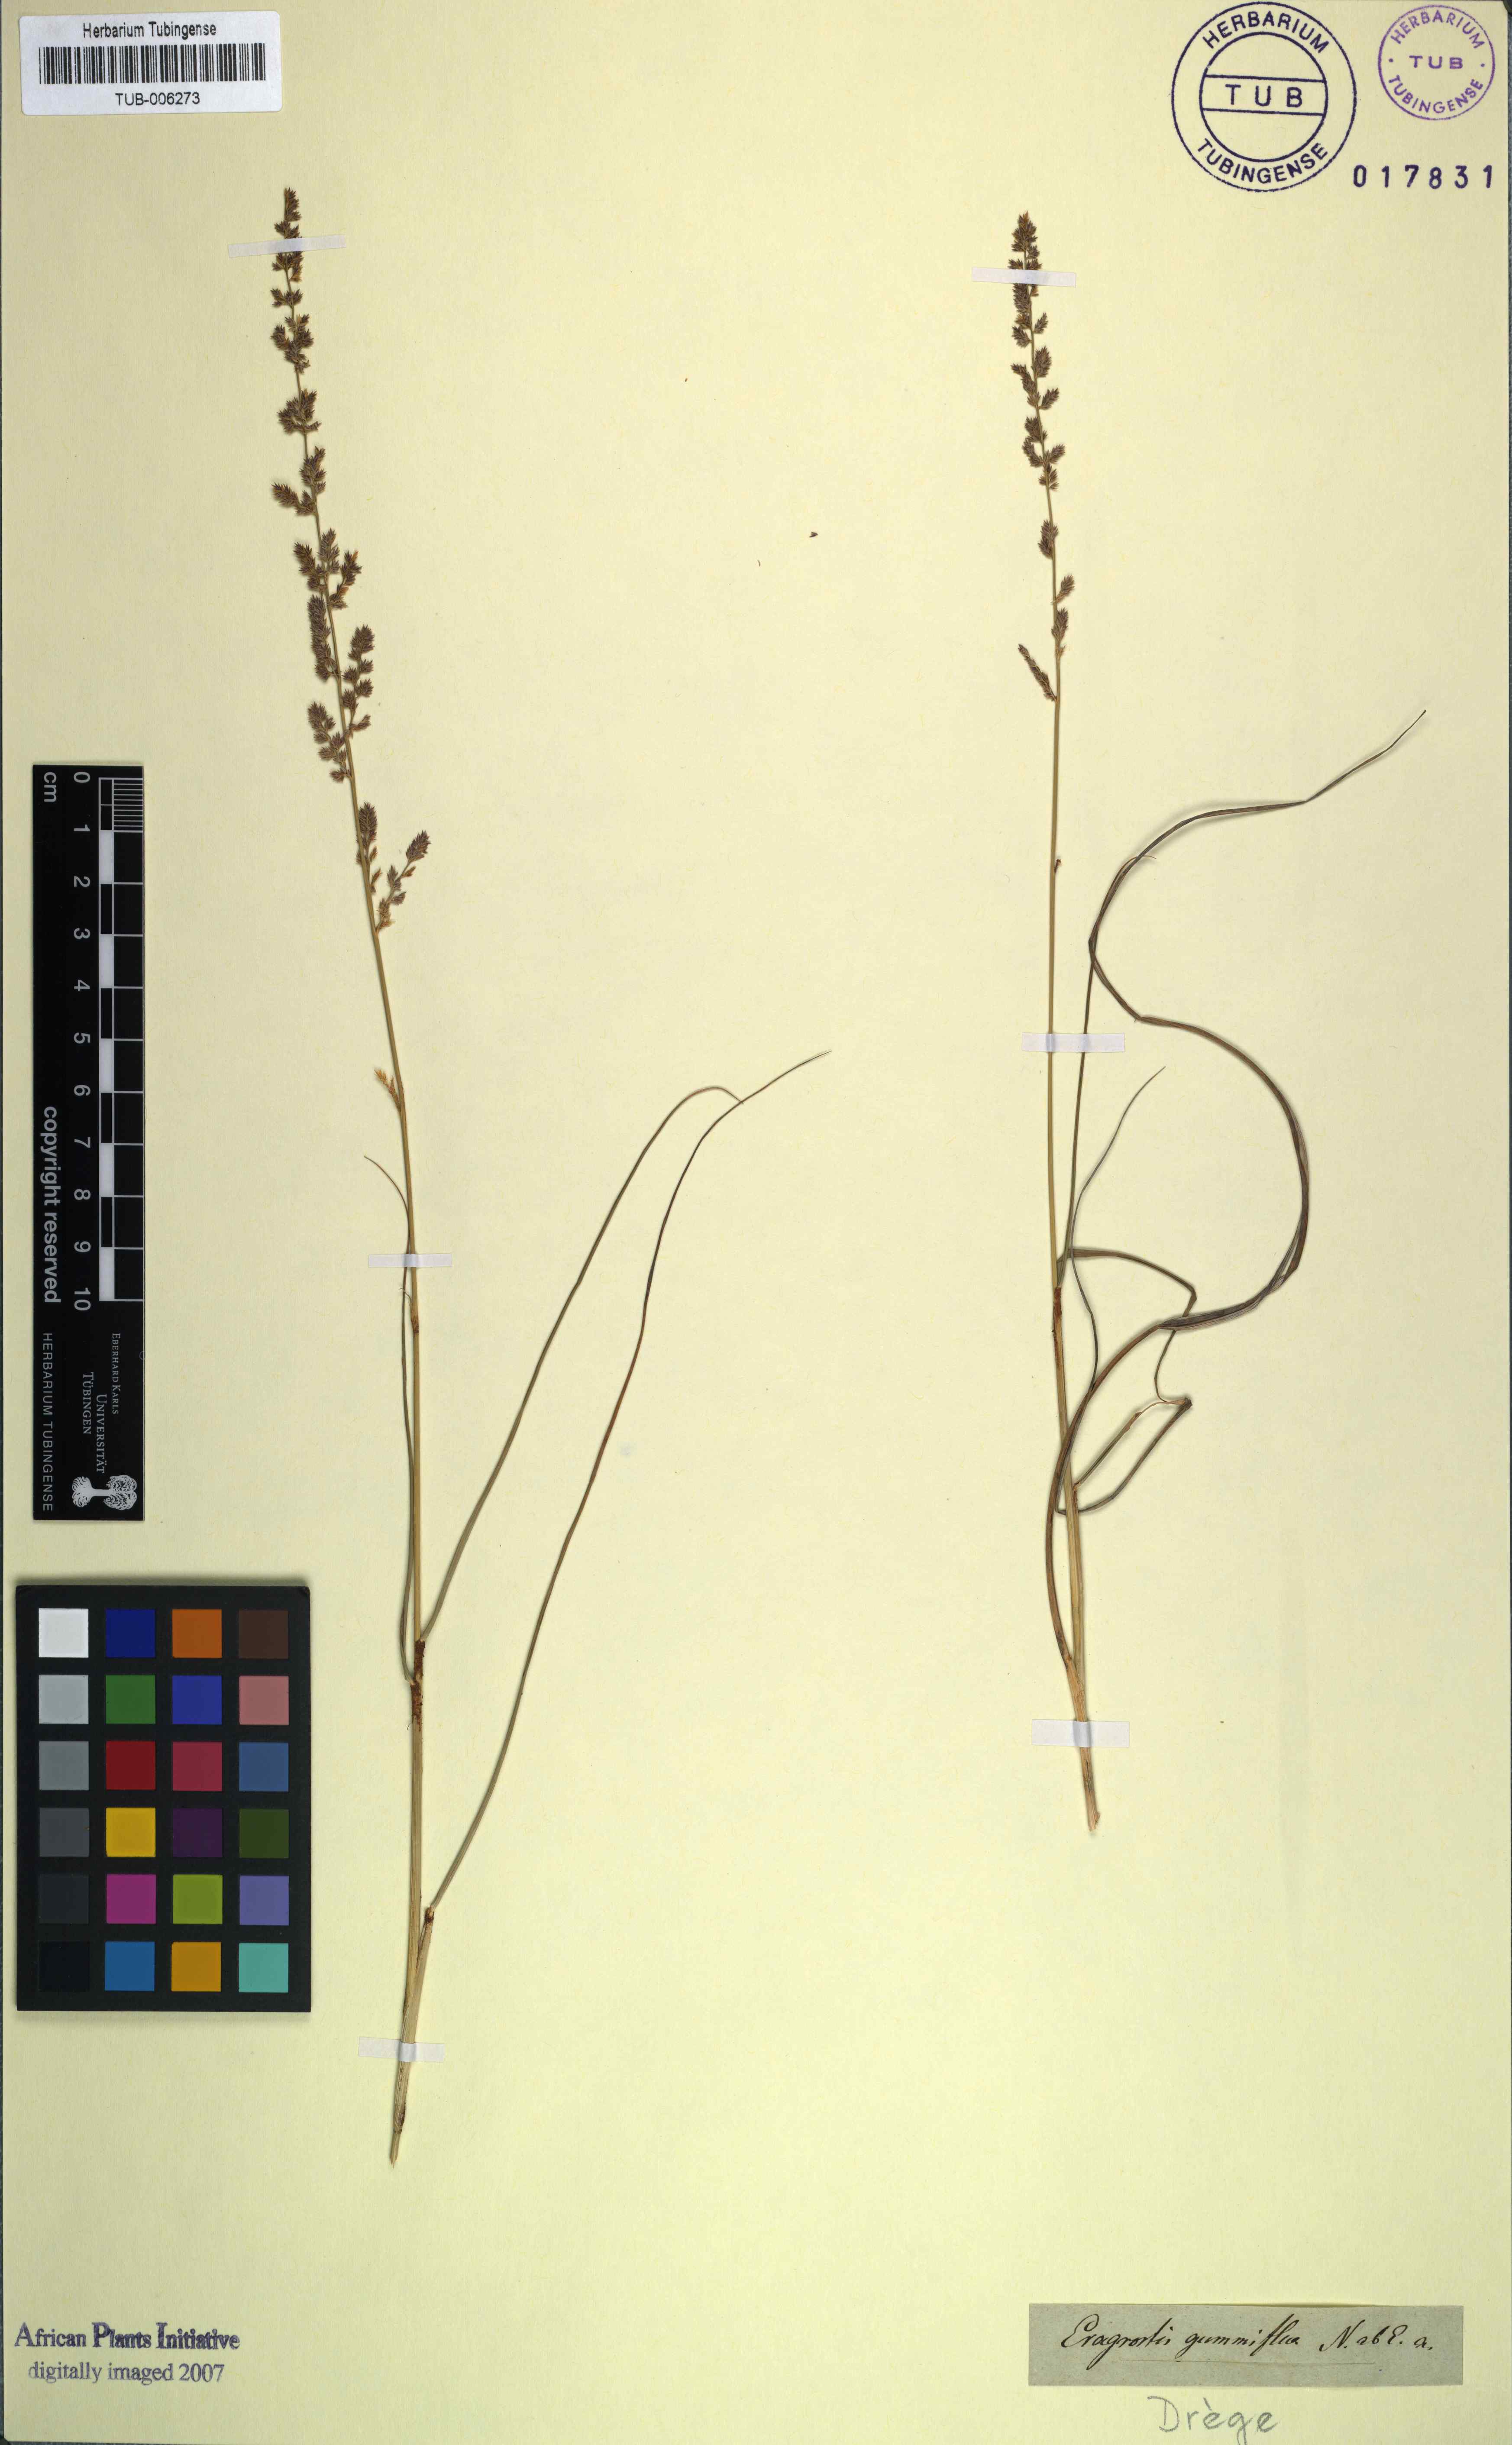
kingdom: Plantae
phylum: Tracheophyta
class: Liliopsida
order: Poales
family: Poaceae
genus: Eragrostis
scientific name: Eragrostis gummiflua
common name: Gum grass
